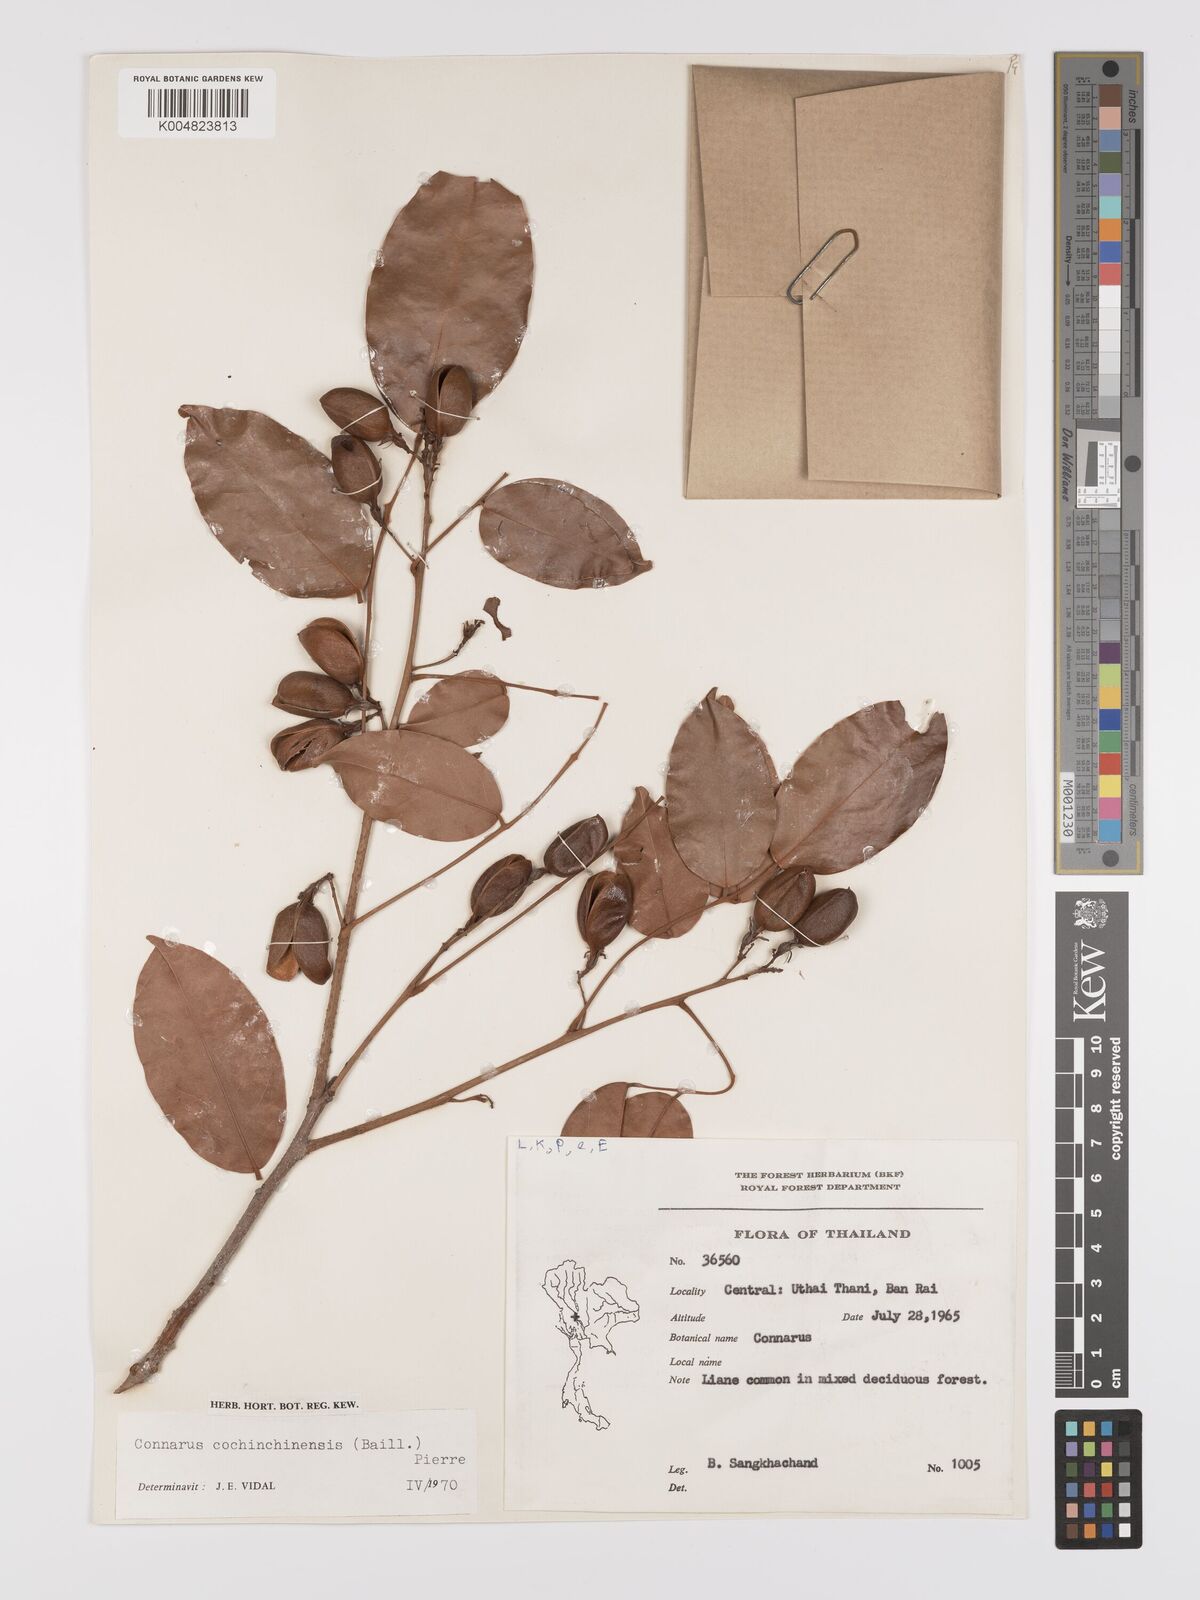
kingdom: Plantae
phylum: Tracheophyta
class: Magnoliopsida
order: Oxalidales
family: Connaraceae
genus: Connarus
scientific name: Connarus cochinchinensis
